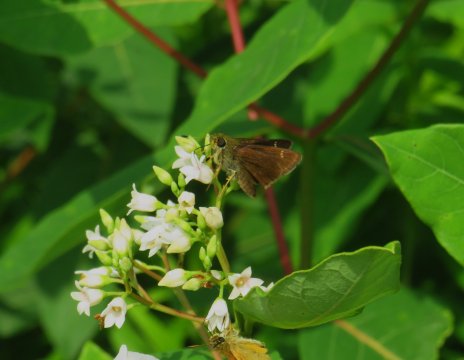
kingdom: Animalia
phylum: Arthropoda
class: Insecta
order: Lepidoptera
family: Hesperiidae
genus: Vernia
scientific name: Vernia verna
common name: Little Glassywing
